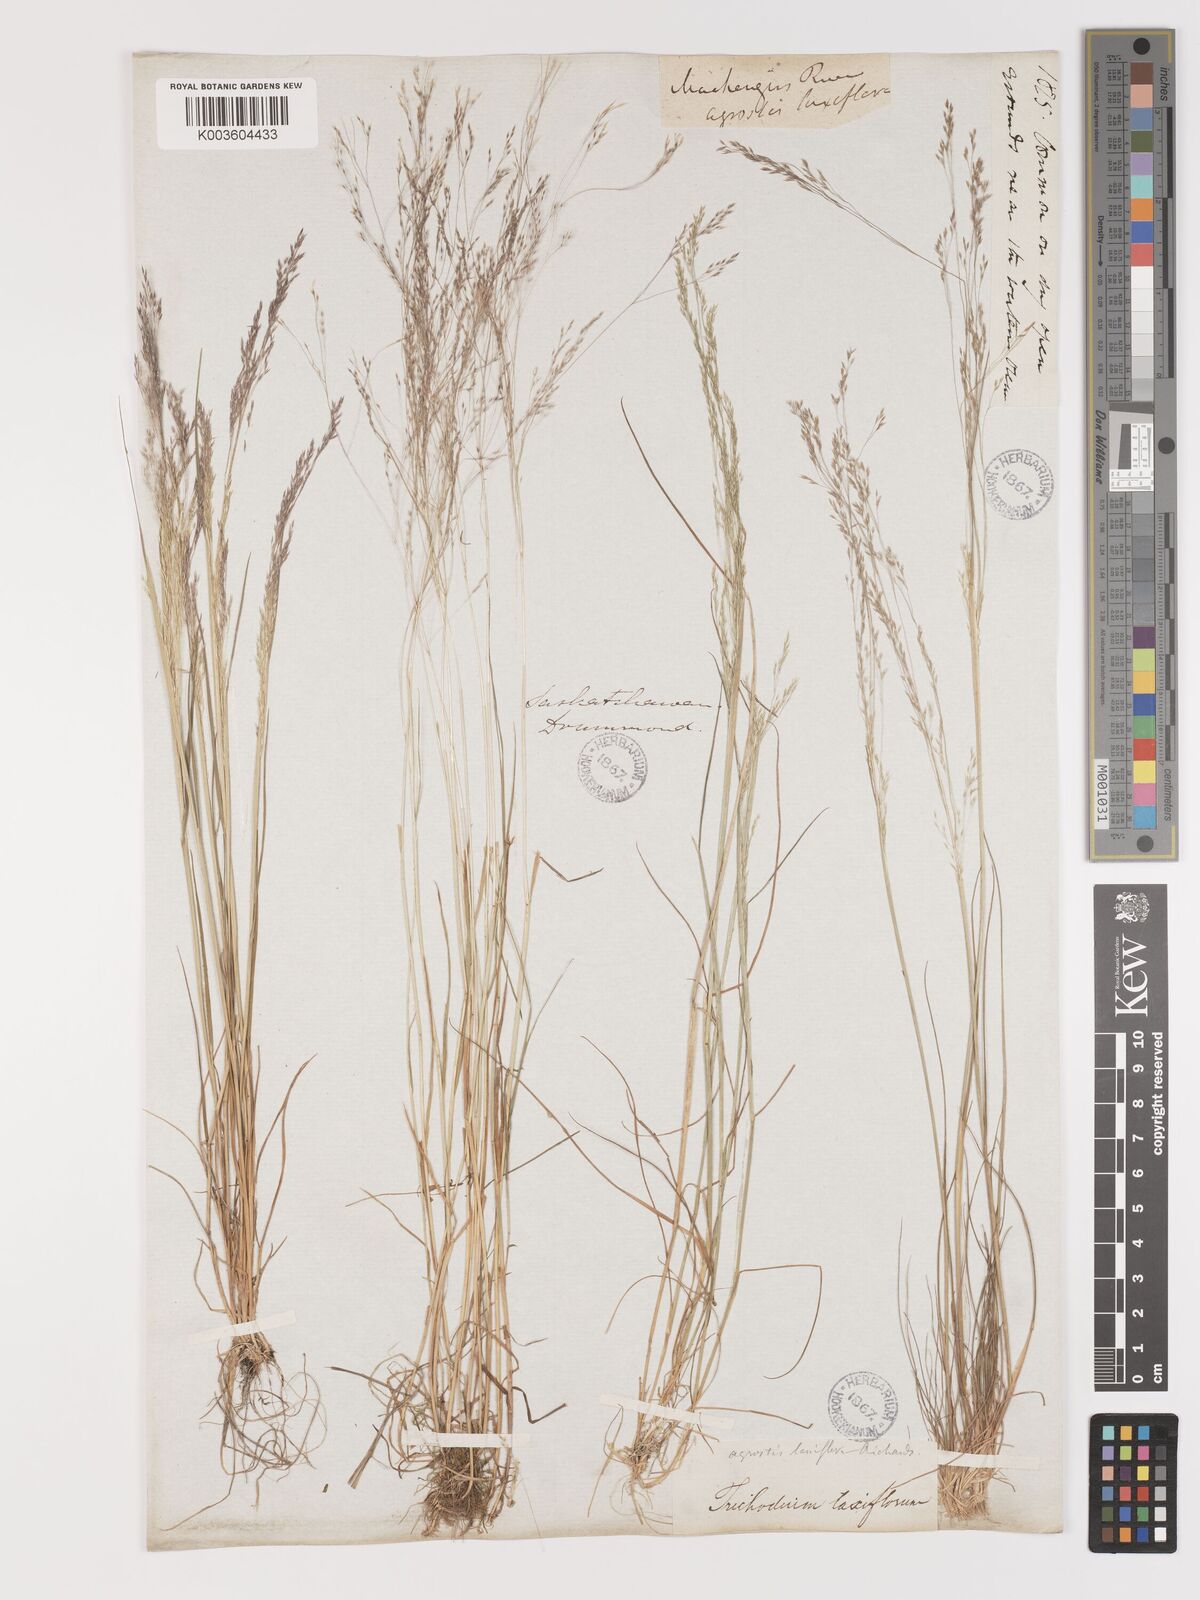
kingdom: Plantae
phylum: Tracheophyta
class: Liliopsida
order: Poales
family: Poaceae
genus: Agrostis
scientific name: Agrostis hyemalis
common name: Small bent
